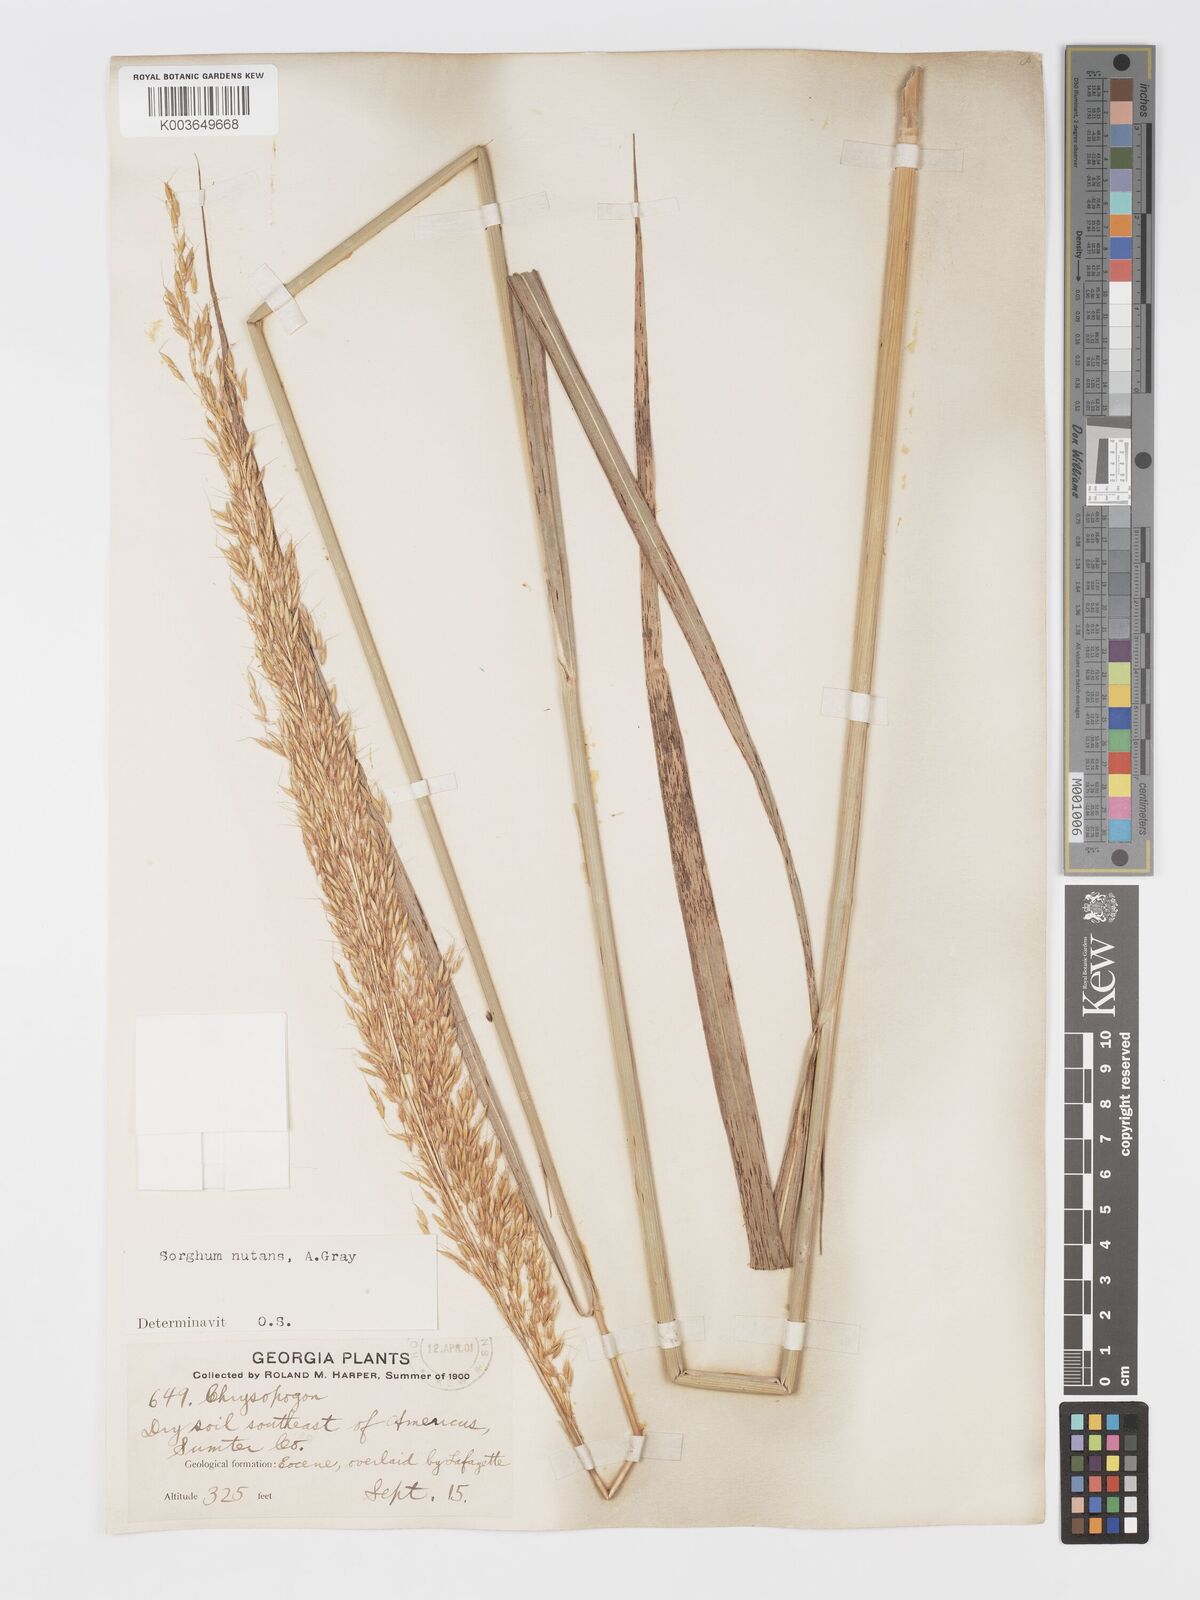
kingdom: Plantae
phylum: Tracheophyta
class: Liliopsida
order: Poales
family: Poaceae
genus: Sorghastrum
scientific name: Sorghastrum nutans
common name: Indian grass
